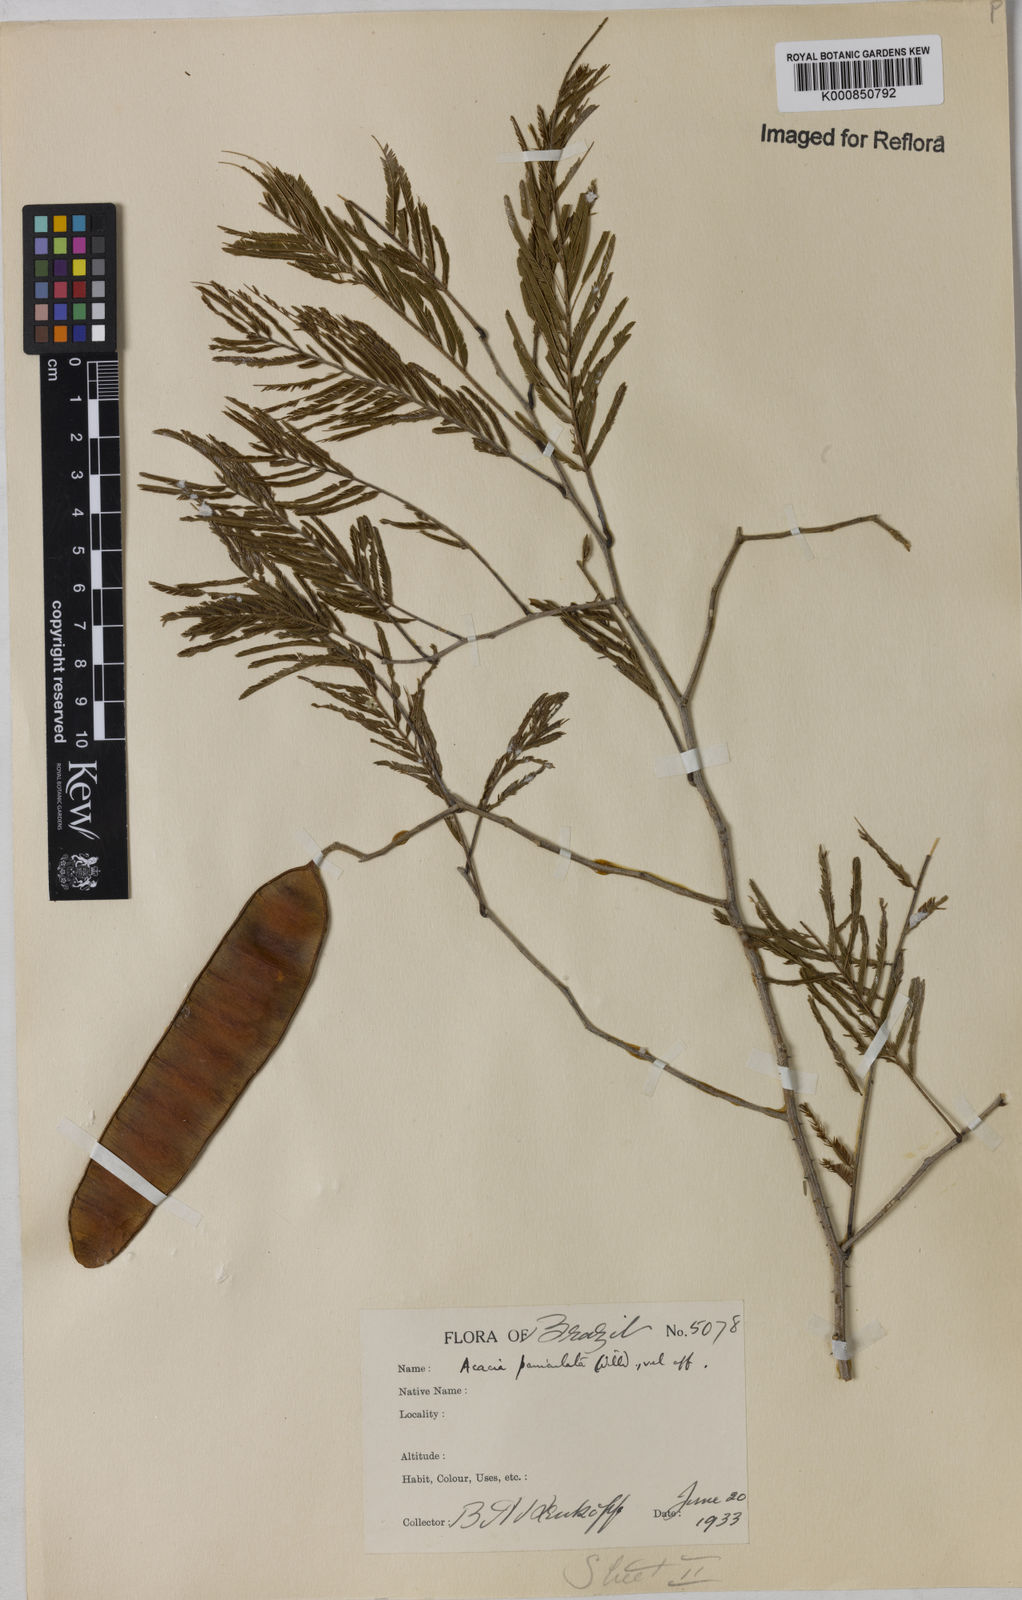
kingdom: Plantae
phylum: Tracheophyta
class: Magnoliopsida
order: Fabales
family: Fabaceae
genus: Senegalia
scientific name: Senegalia tenuifolia
